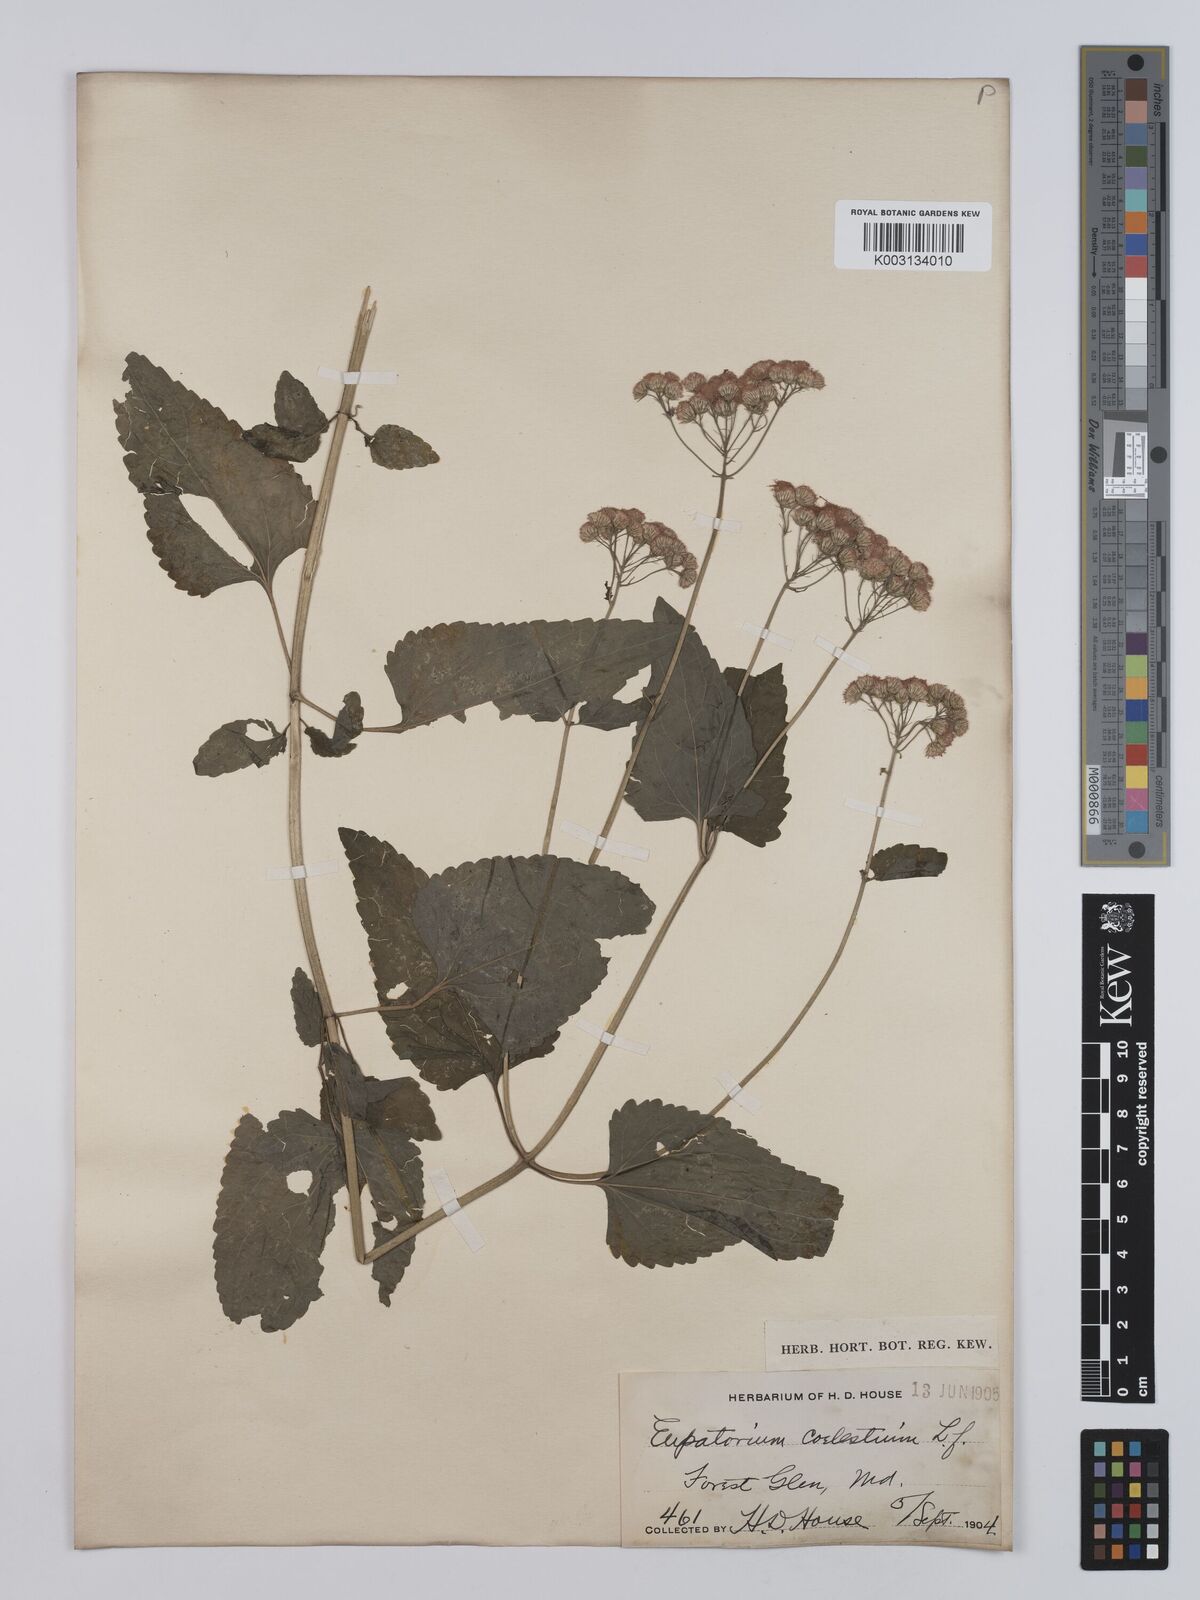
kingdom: Plantae
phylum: Tracheophyta
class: Magnoliopsida
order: Asterales
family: Asteraceae
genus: Conoclinium
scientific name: Conoclinium coelestinum
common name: Blue mistflower
